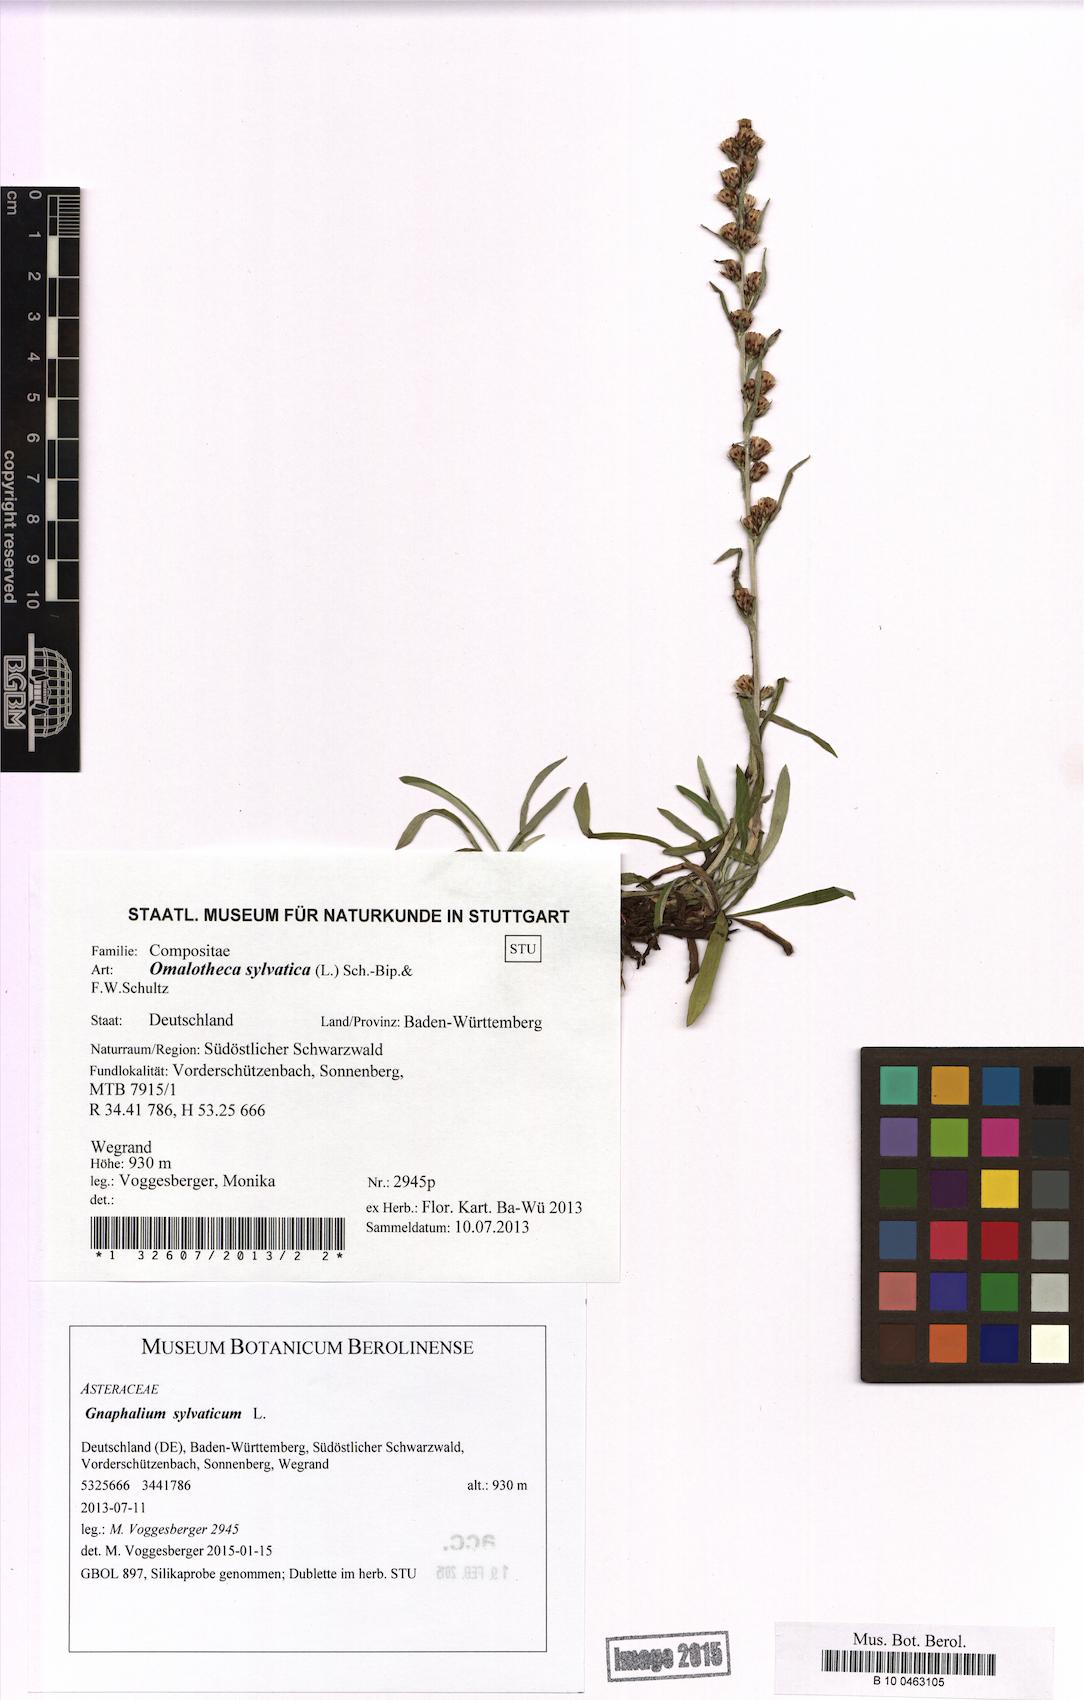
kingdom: Plantae
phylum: Tracheophyta
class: Magnoliopsida
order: Asterales
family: Asteraceae
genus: Omalotheca
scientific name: Omalotheca sylvatica
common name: Heath cudweed
